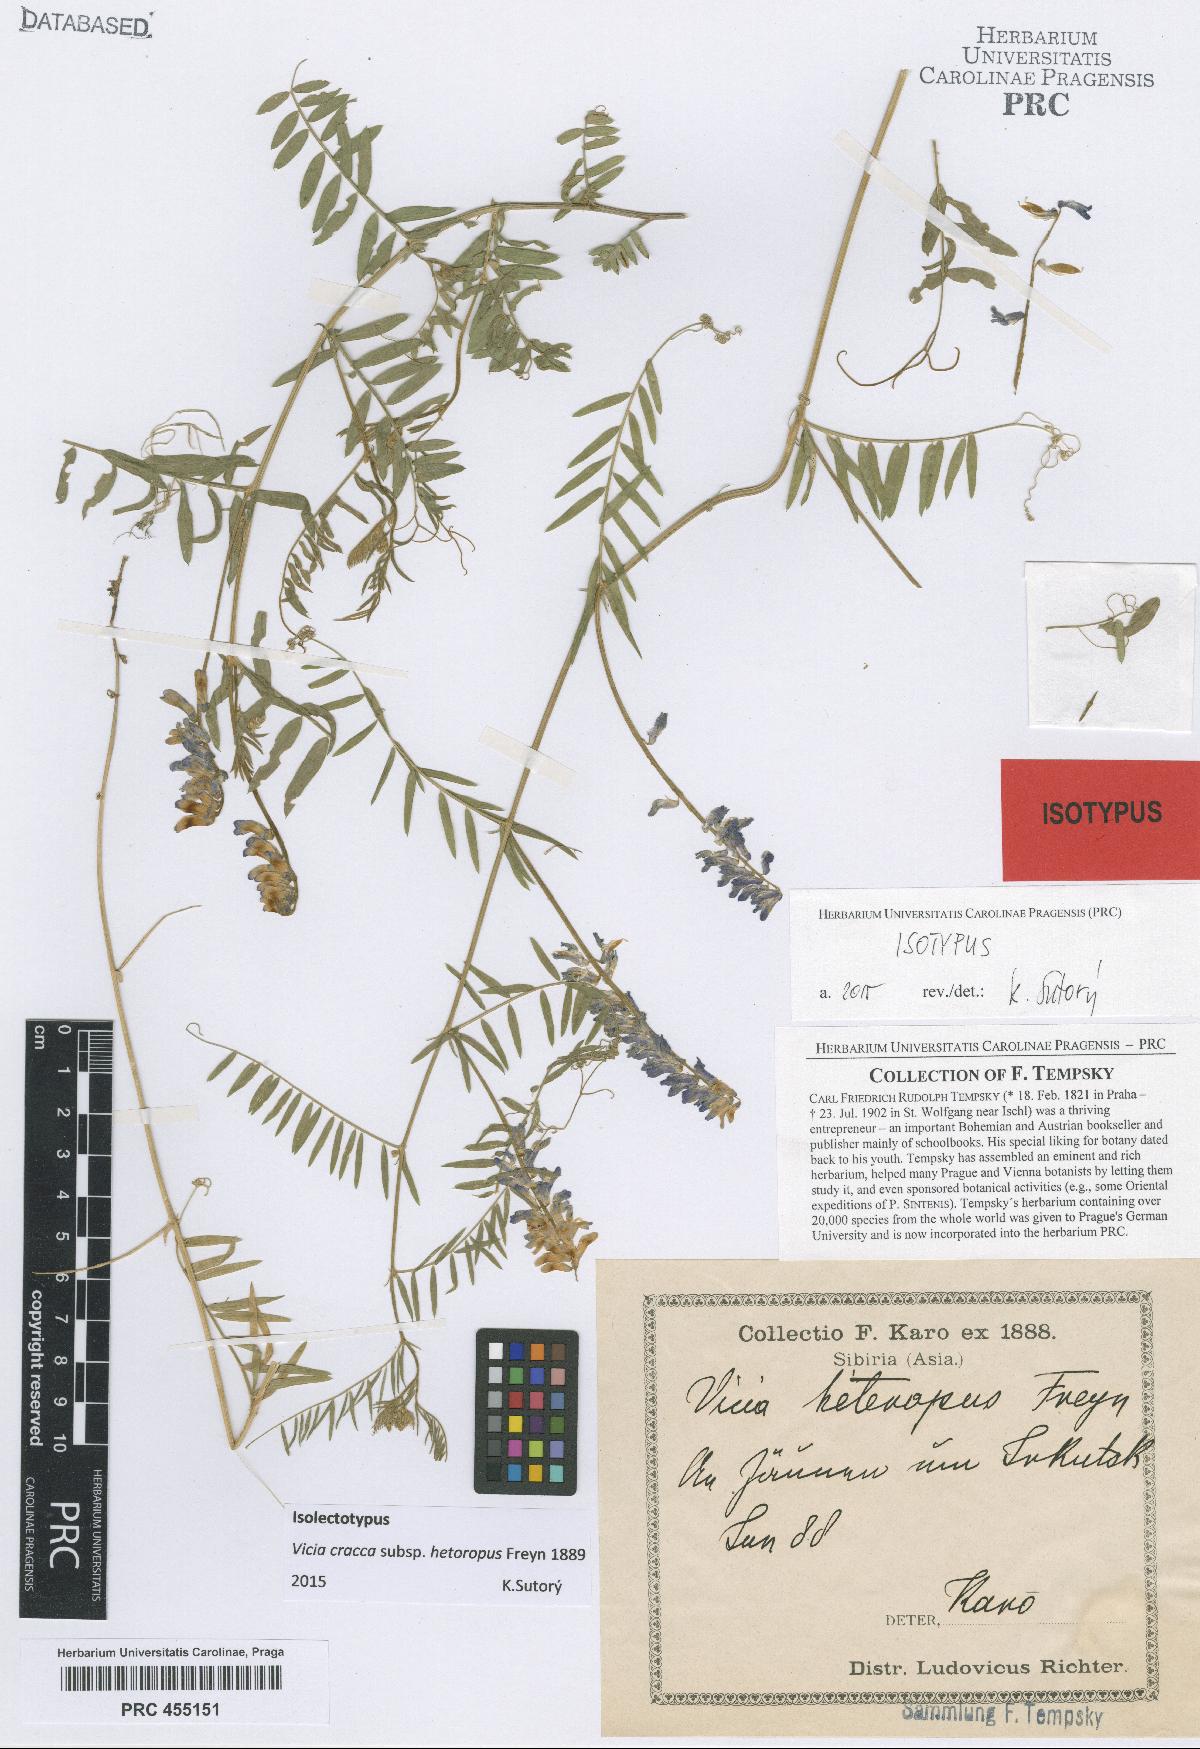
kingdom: Plantae
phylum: Tracheophyta
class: Magnoliopsida
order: Fabales
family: Fabaceae
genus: Vicia
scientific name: Vicia cracca
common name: Bird vetch
